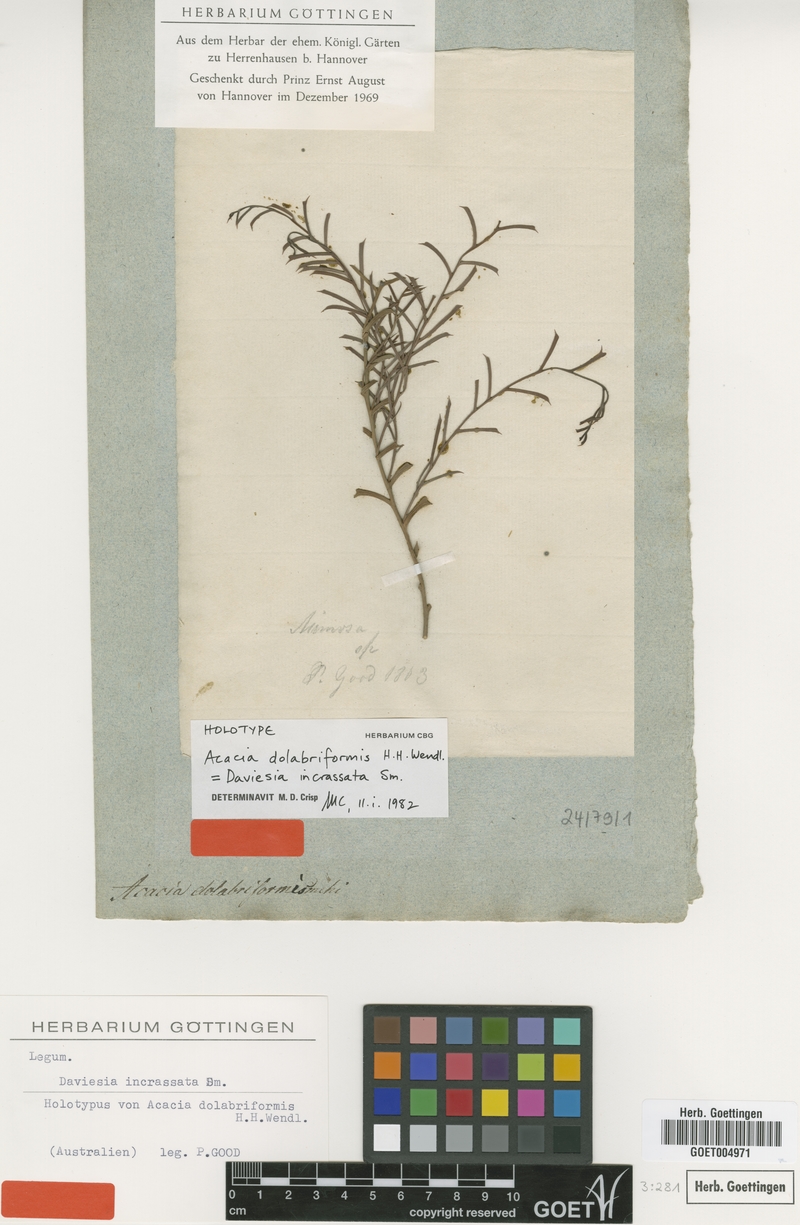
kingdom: Plantae
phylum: Tracheophyta
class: Magnoliopsida
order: Fabales
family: Fabaceae
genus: Daviesia
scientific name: Daviesia incrassata
